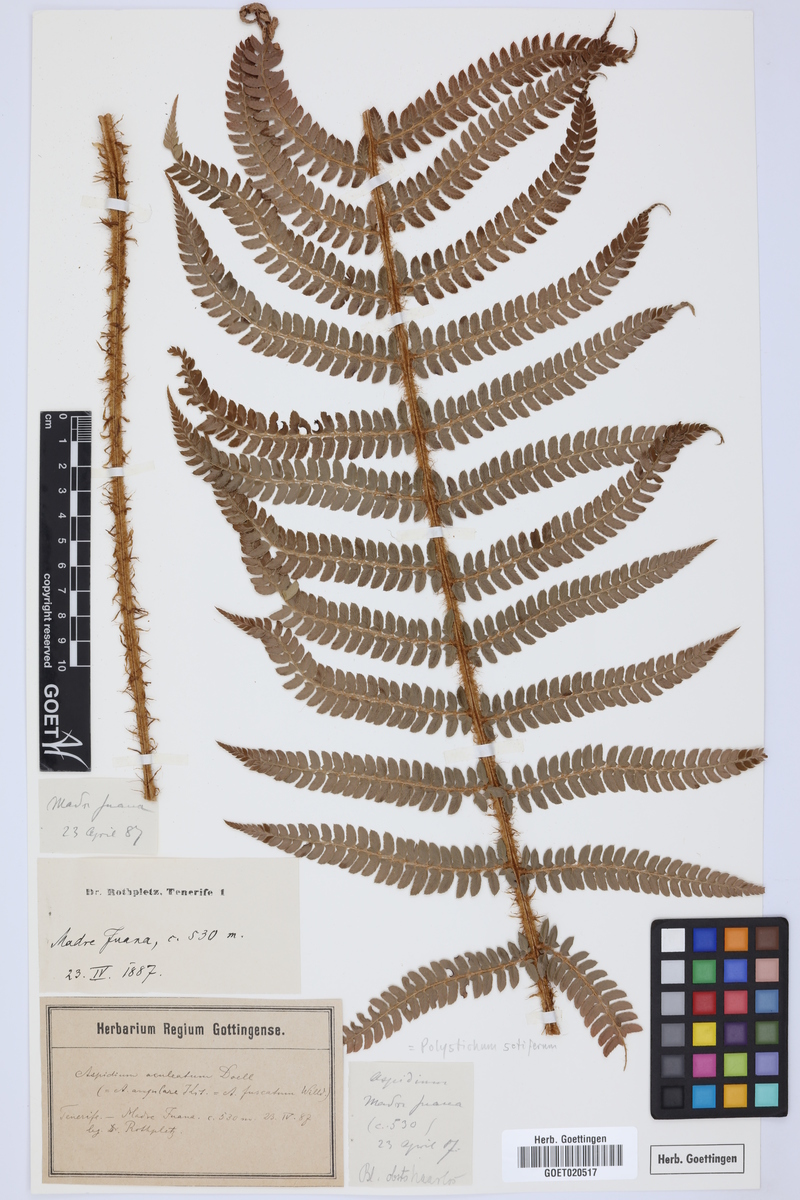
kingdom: Plantae
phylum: Tracheophyta
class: Polypodiopsida
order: Polypodiales
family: Dryopteridaceae
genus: Polystichum
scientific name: Polystichum setiferum
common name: Soft shield-fern
